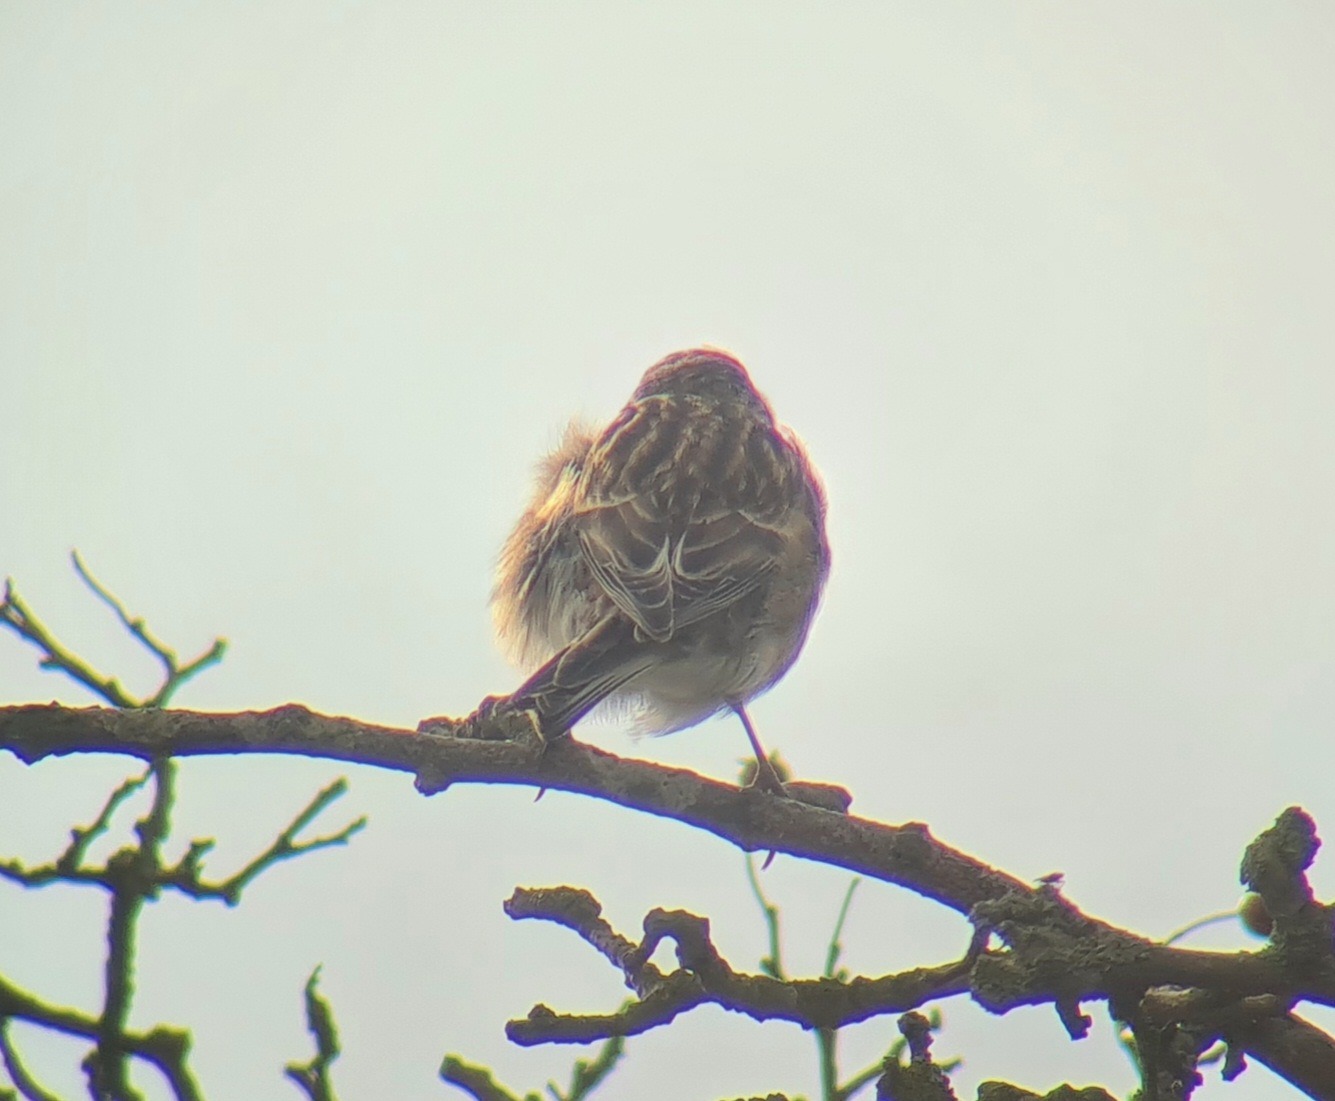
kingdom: Animalia
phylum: Chordata
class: Aves
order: Passeriformes
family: Fringillidae
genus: Linaria
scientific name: Linaria flavirostris
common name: Bjergirisk
